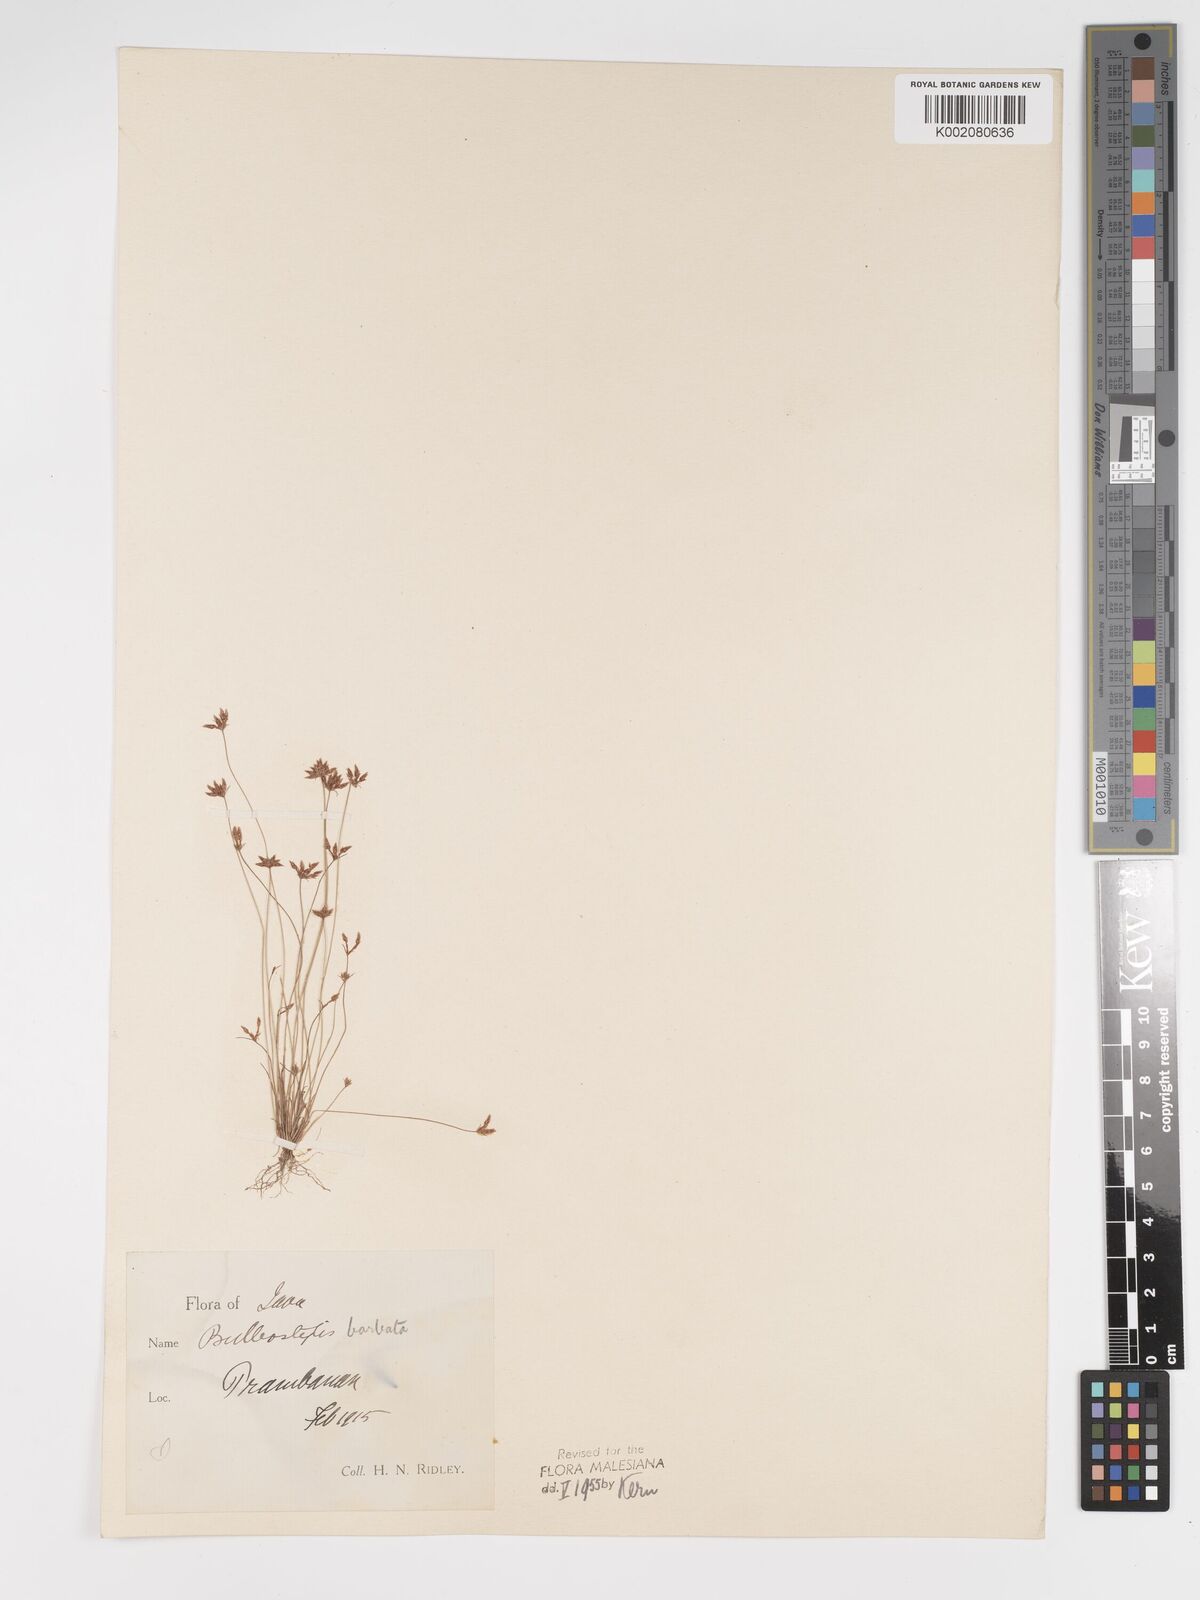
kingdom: Plantae
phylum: Tracheophyta
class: Liliopsida
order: Poales
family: Cyperaceae
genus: Bulbostylis
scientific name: Bulbostylis barbata
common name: Watergrass
